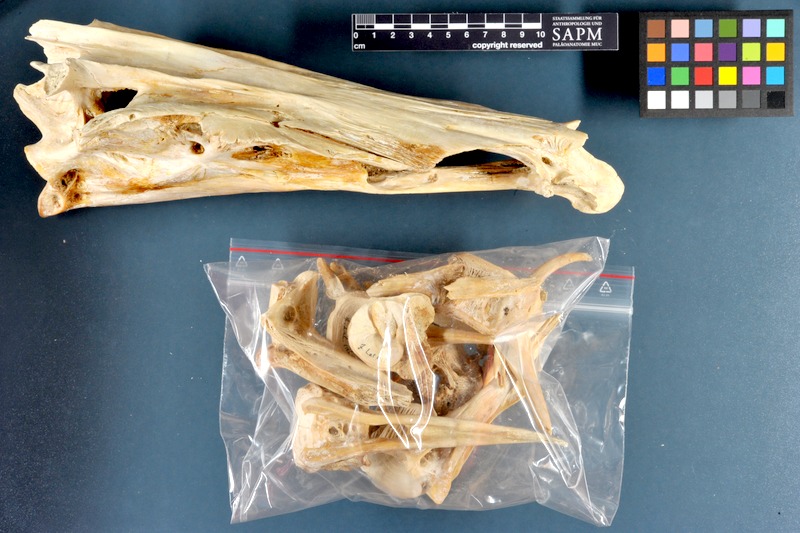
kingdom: Animalia
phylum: Chordata
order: Perciformes
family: Latidae
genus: Lates
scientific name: Lates niloticus
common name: Nile perch
